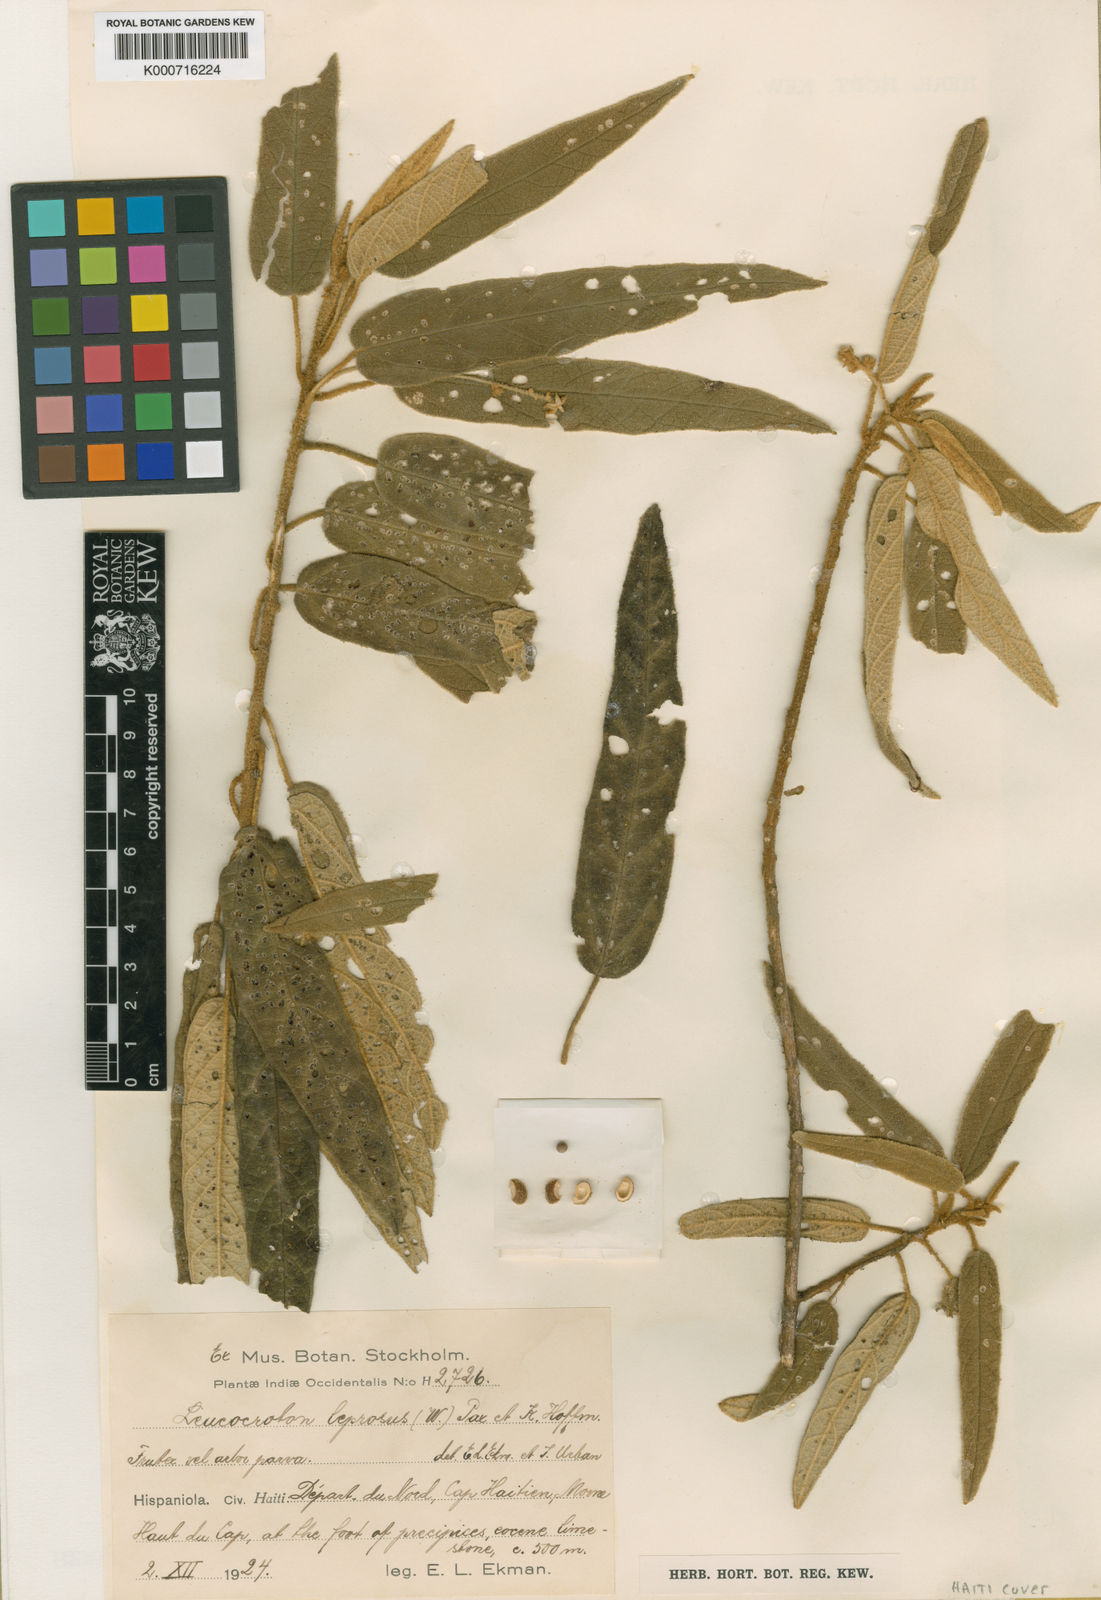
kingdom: Plantae
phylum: Tracheophyta
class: Magnoliopsida
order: Malpighiales
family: Euphorbiaceae
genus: Garciadelia
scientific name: Garciadelia
